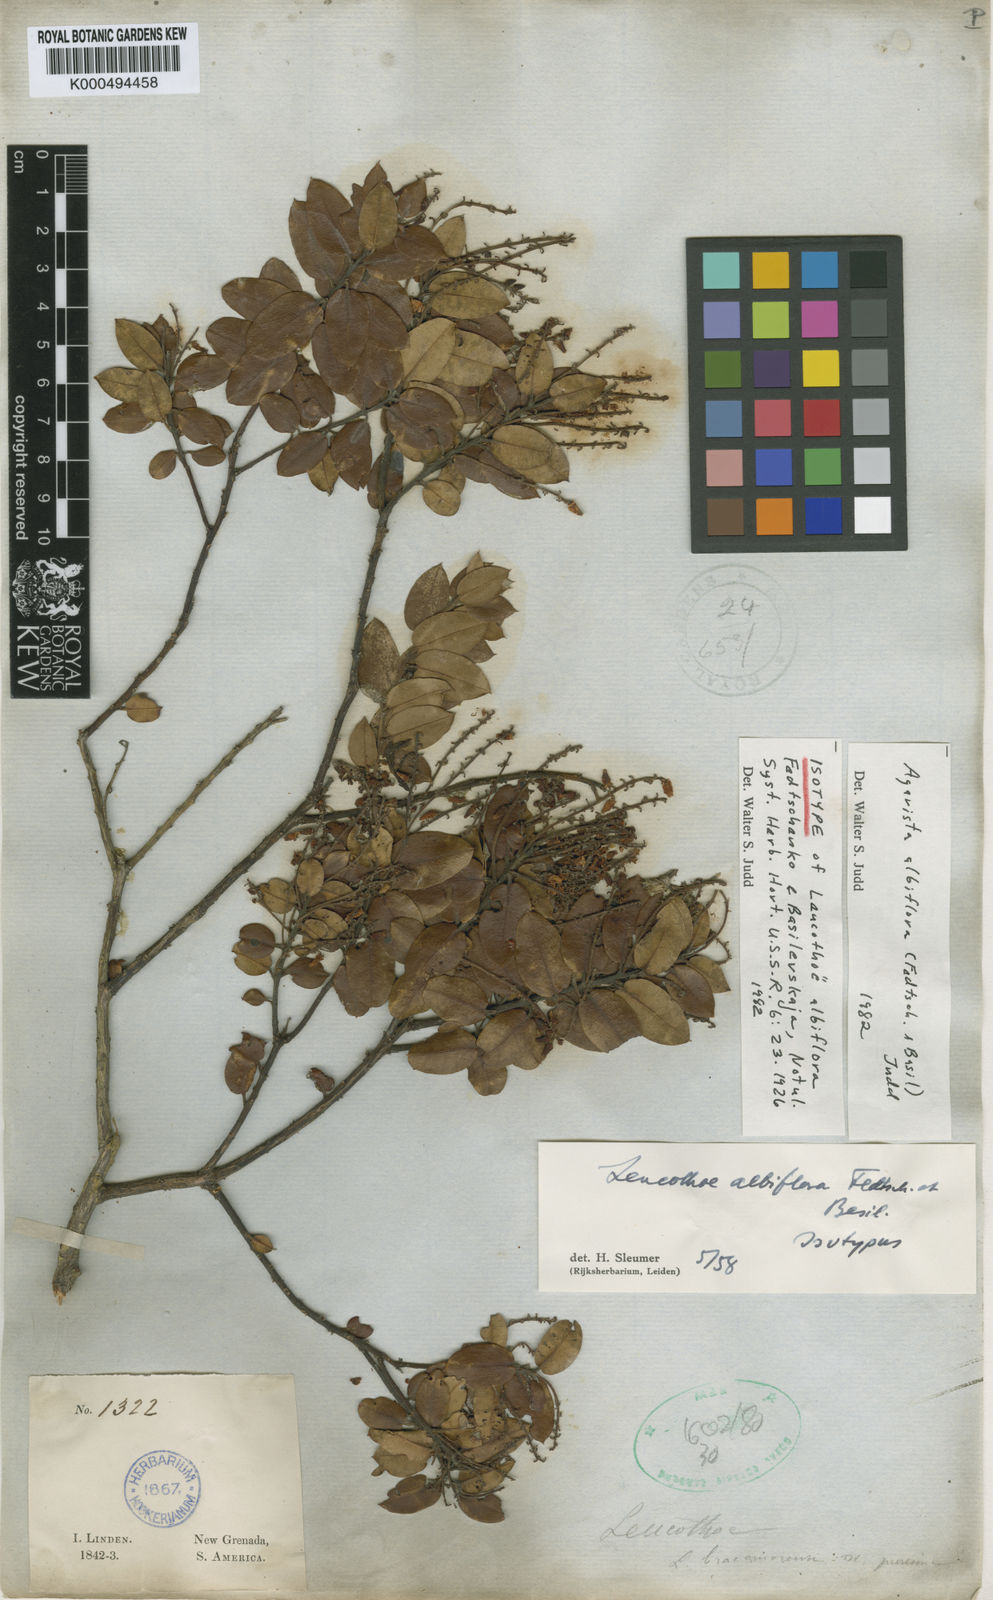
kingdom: Plantae
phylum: Tracheophyta
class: Magnoliopsida
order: Ericales
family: Ericaceae
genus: Agarista
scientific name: Agarista albiflora
